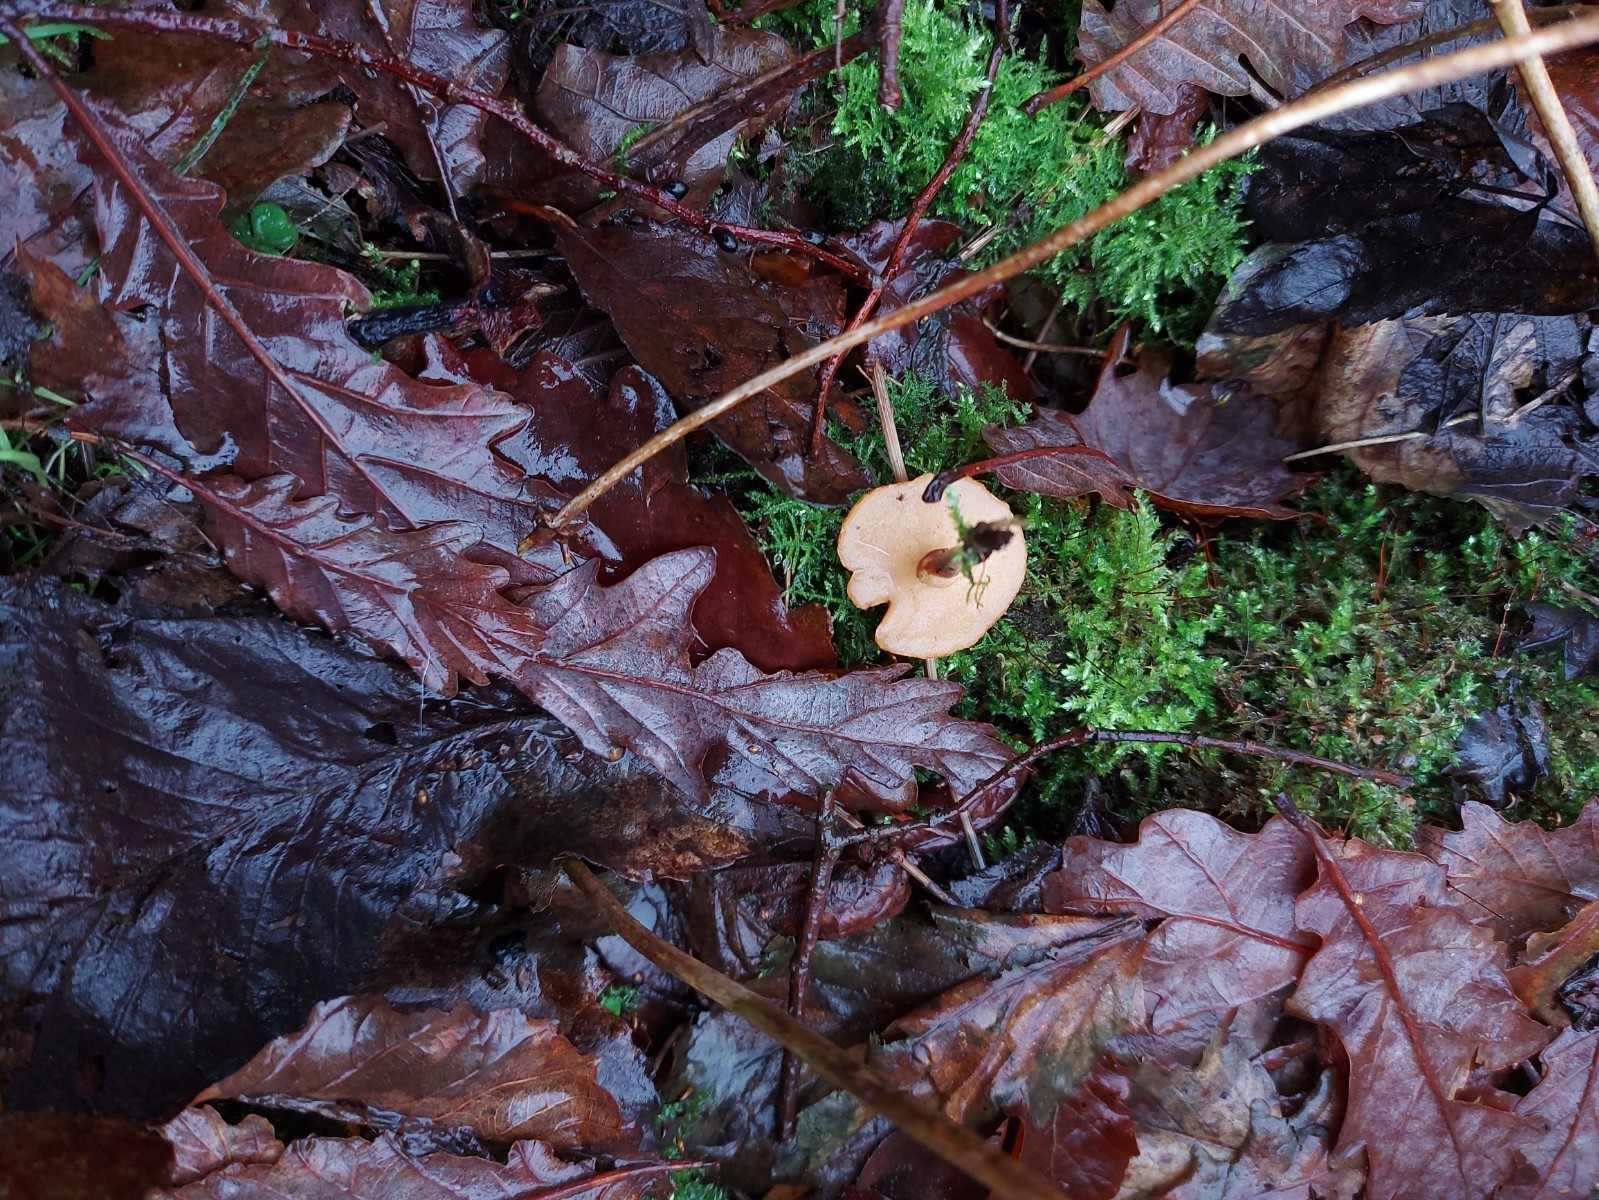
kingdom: Fungi
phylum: Basidiomycota
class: Agaricomycetes
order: Polyporales
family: Polyporaceae
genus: Picipes
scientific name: Picipes
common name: stilkporesvamp
